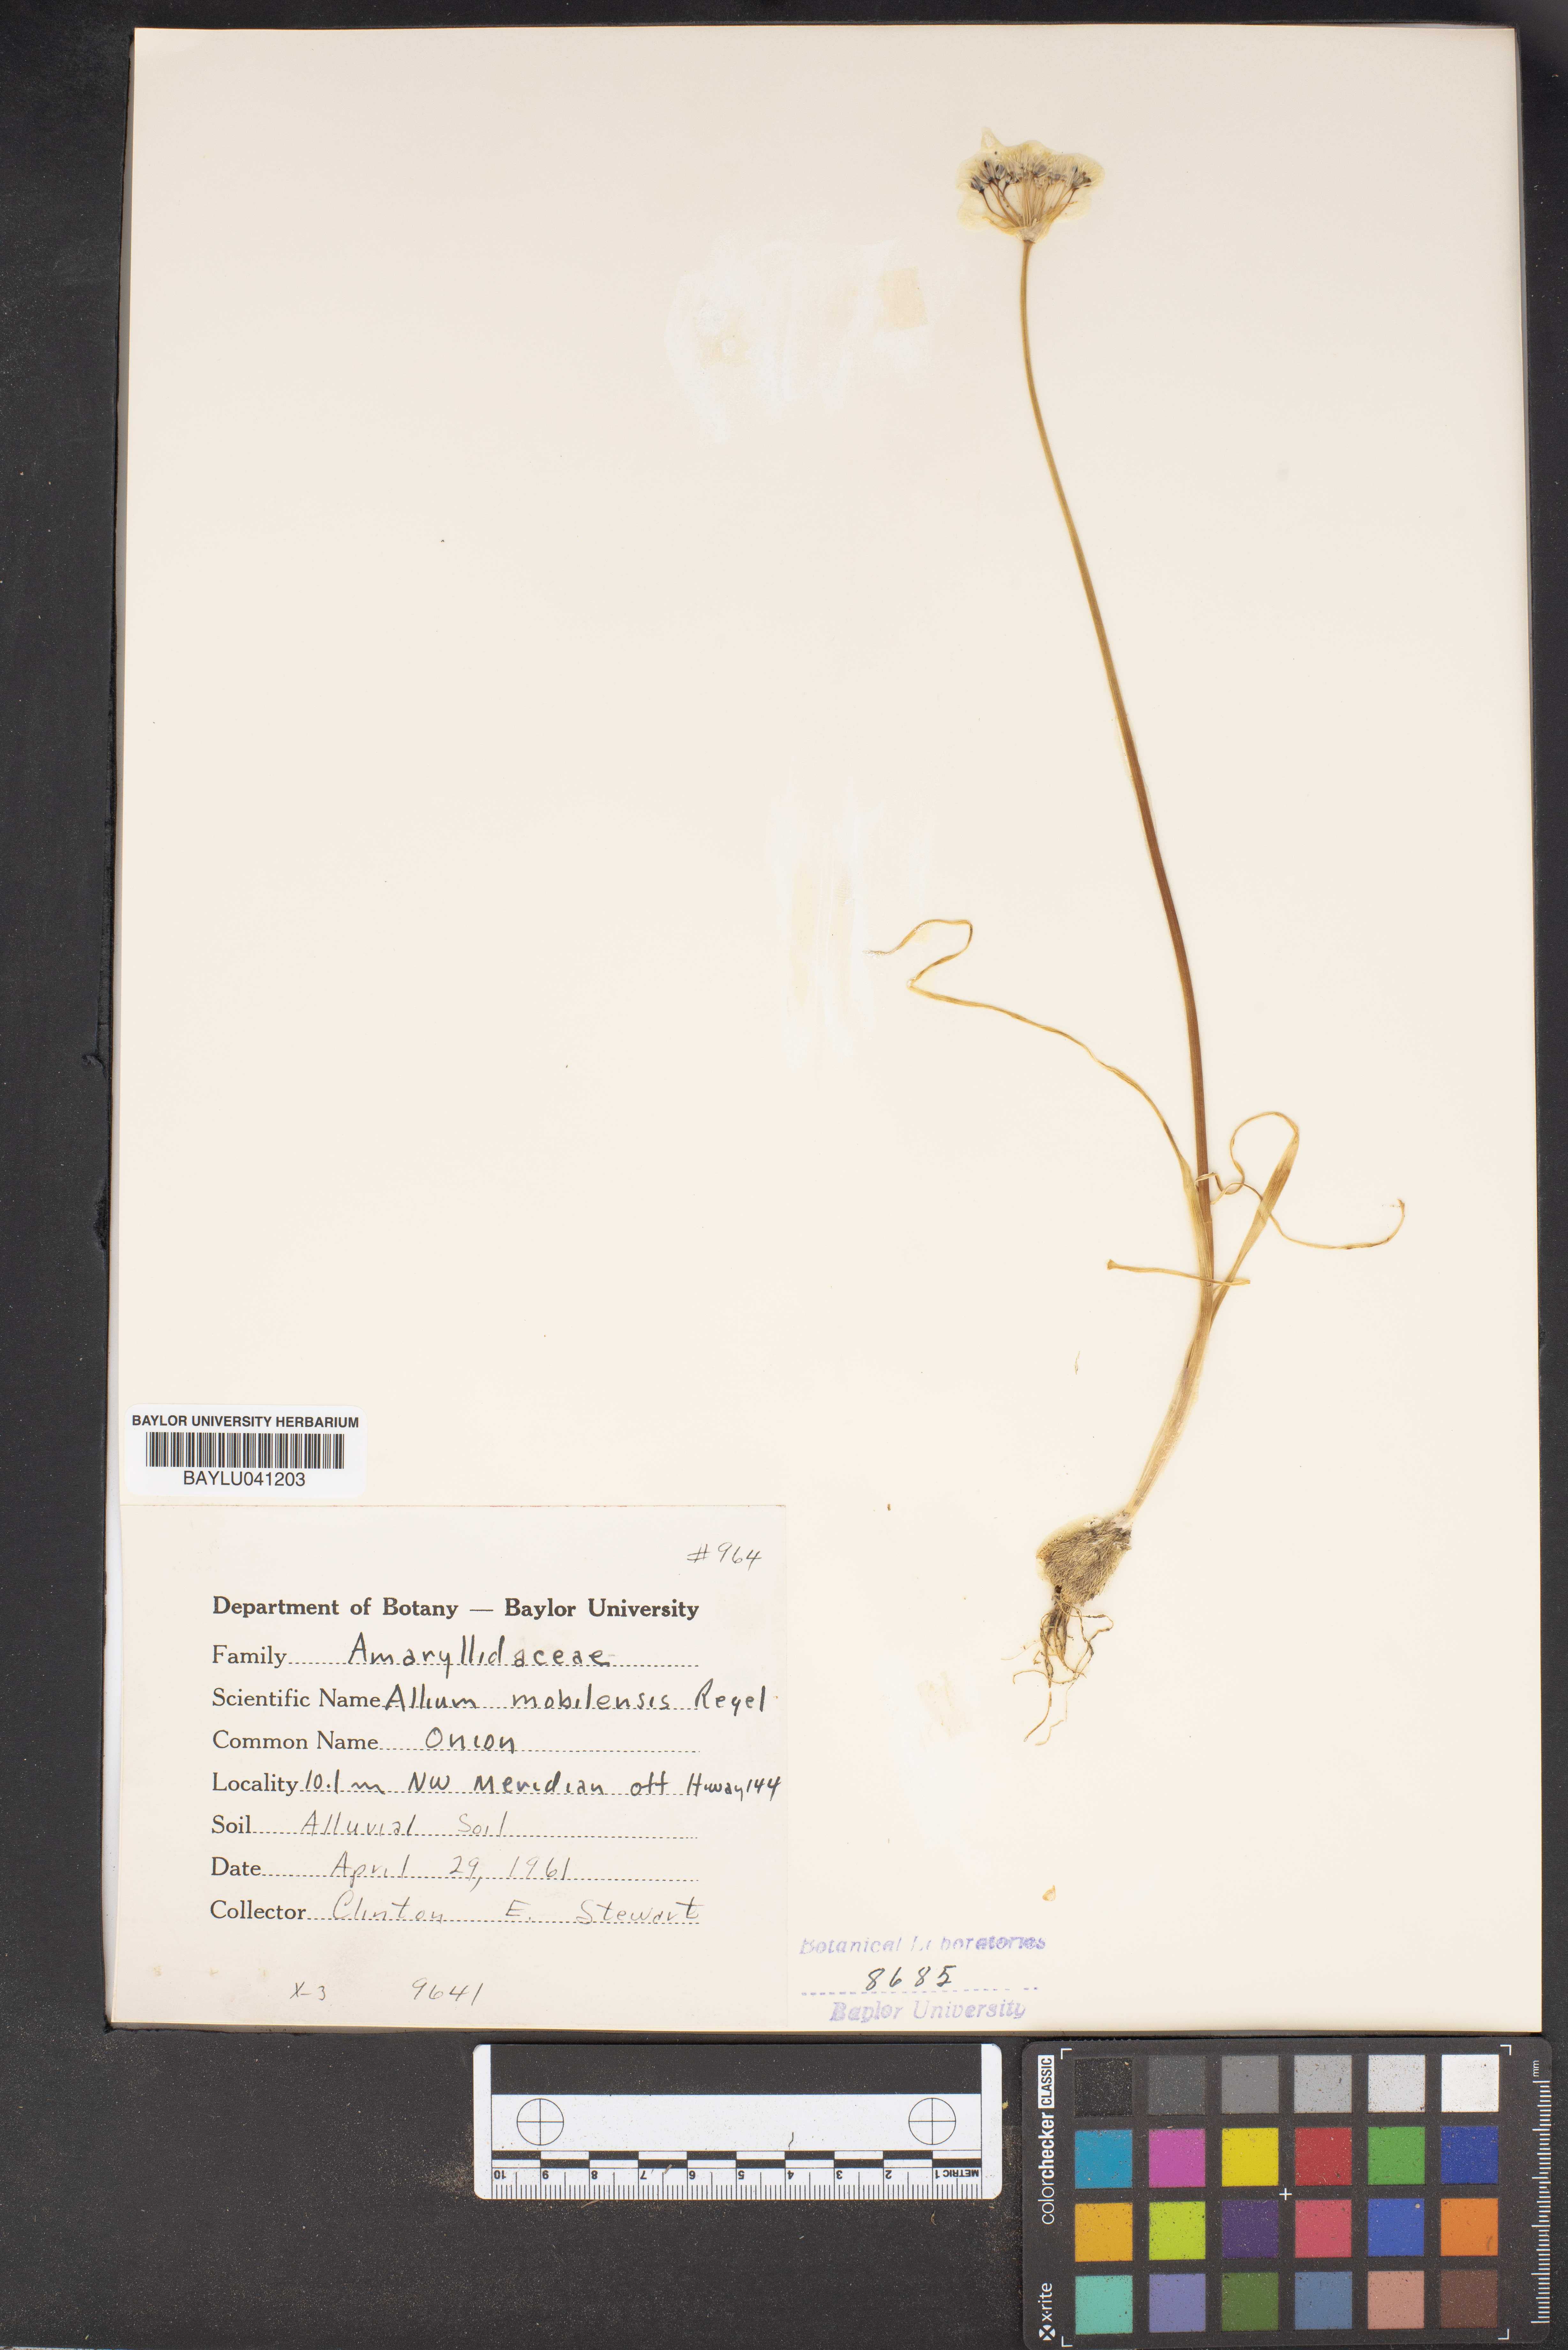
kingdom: Plantae
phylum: Tracheophyta
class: Liliopsida
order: Asparagales
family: Amaryllidaceae
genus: Allium
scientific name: Allium canadense
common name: Meadow garlic
